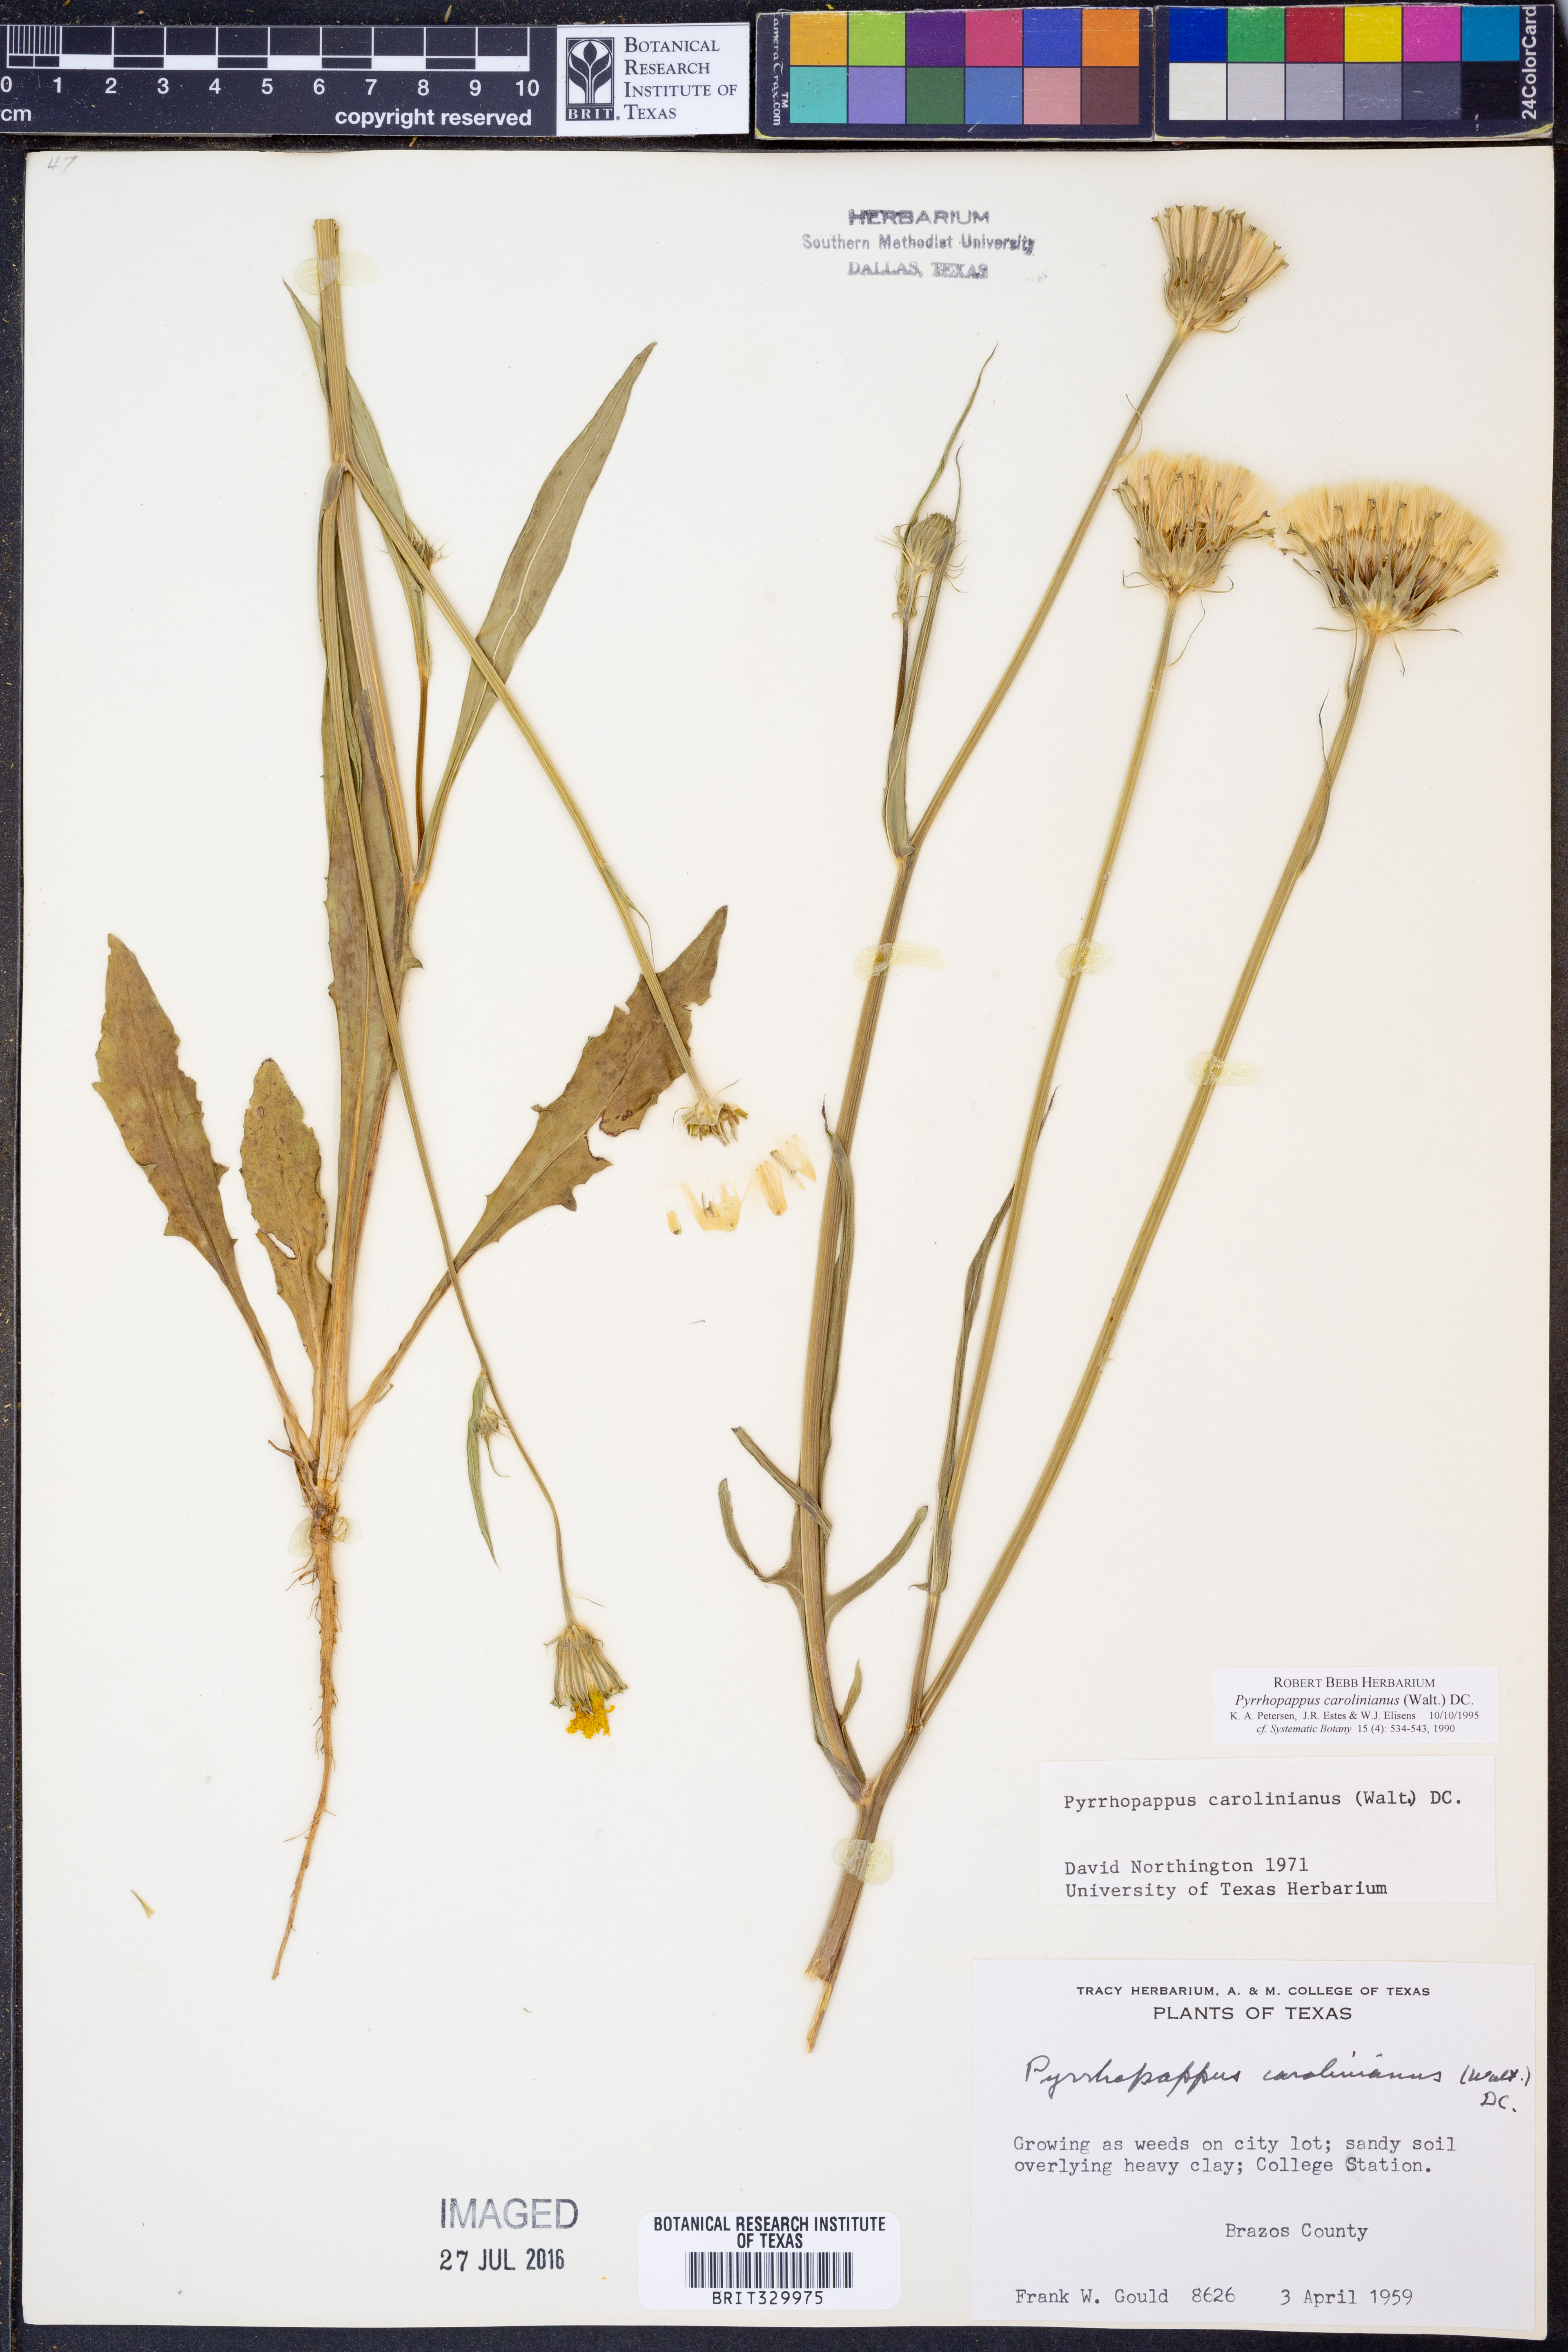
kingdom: Plantae
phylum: Tracheophyta
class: Magnoliopsida
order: Asterales
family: Asteraceae
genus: Pyrrhopappus
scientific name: Pyrrhopappus carolinianus
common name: Carolina desert-chicory
